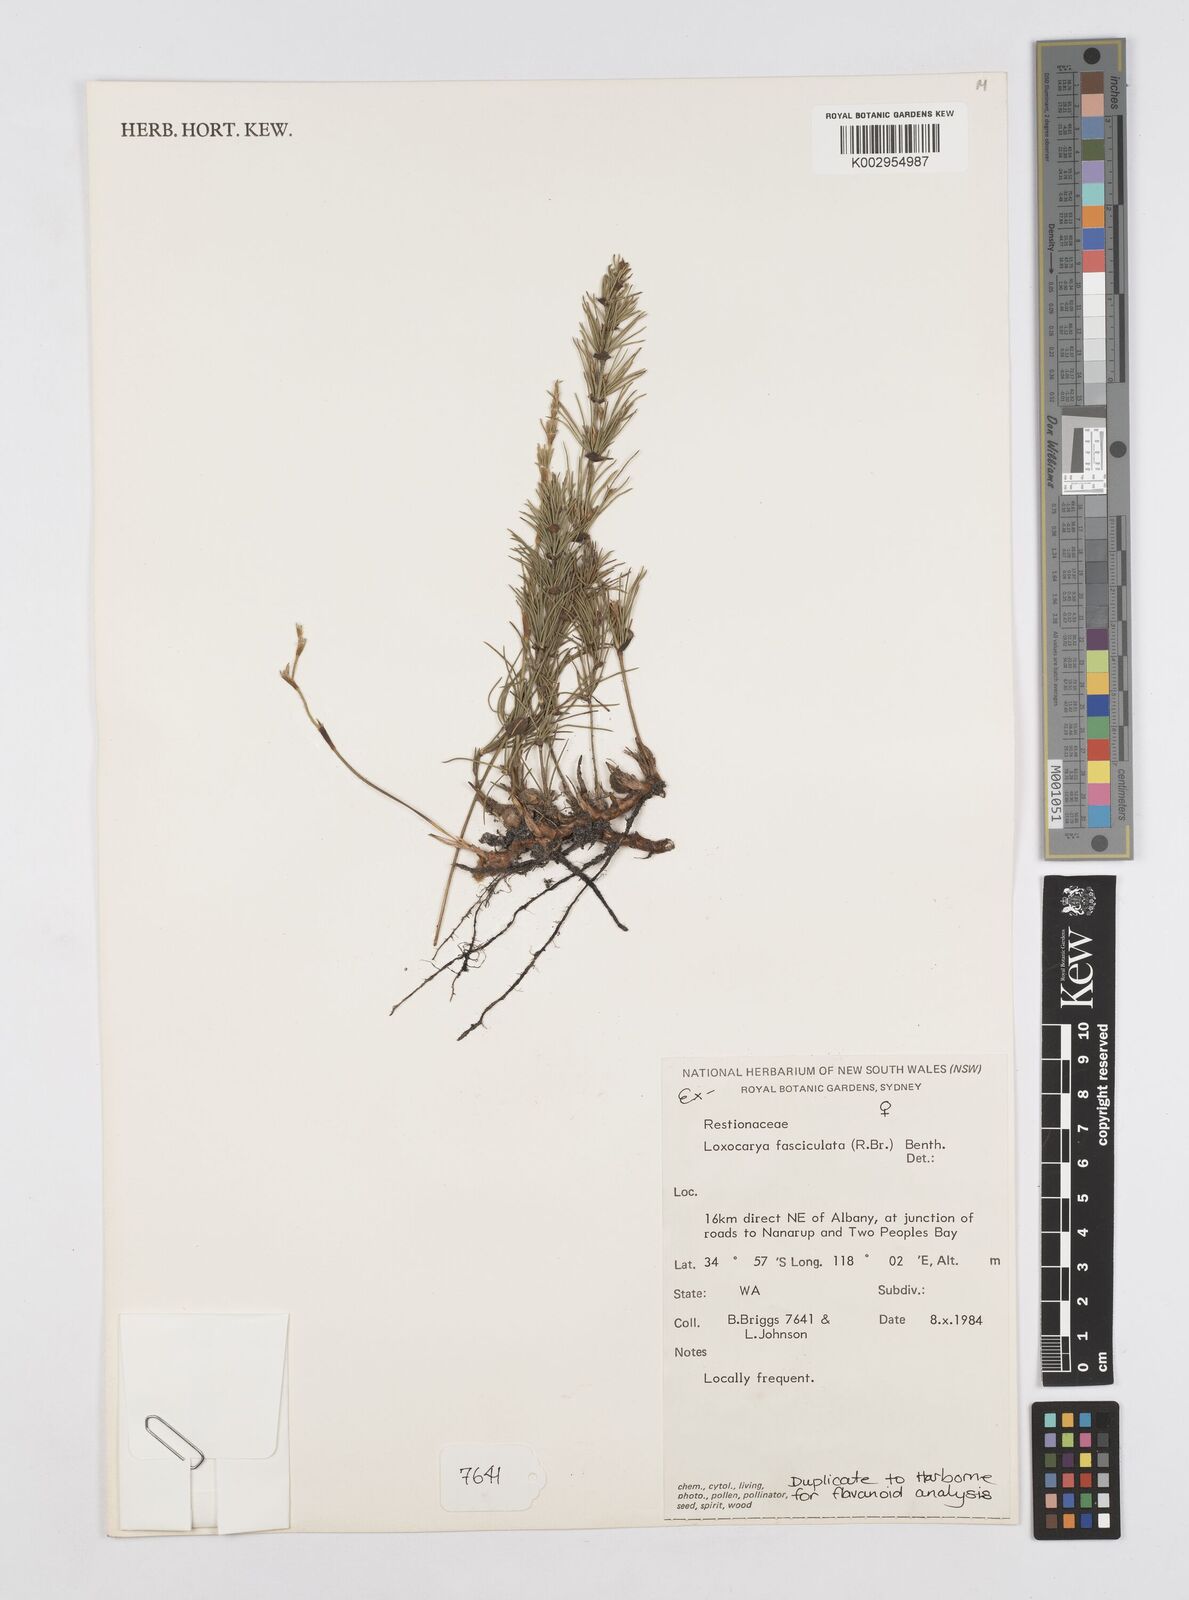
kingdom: Plantae
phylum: Tracheophyta
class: Liliopsida
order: Poales
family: Restionaceae
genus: Desmocladus
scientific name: Desmocladus fasciculatus
